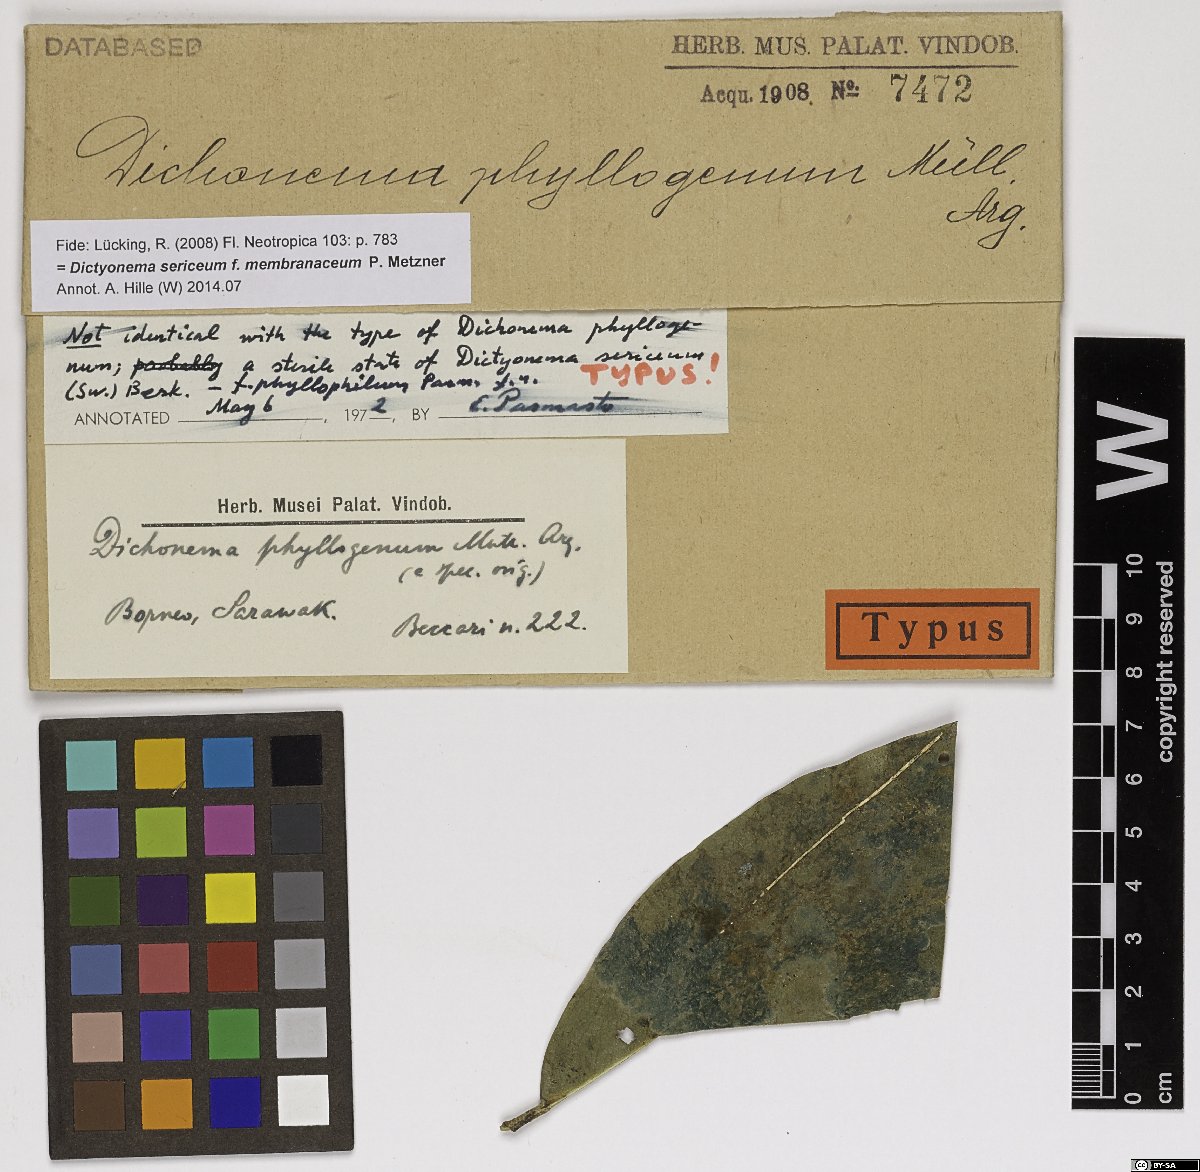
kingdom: Fungi
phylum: Basidiomycota
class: Agaricomycetes
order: Agaricales
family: Hygrophoraceae
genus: Dictyonema
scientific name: Dictyonema phyllophilum
